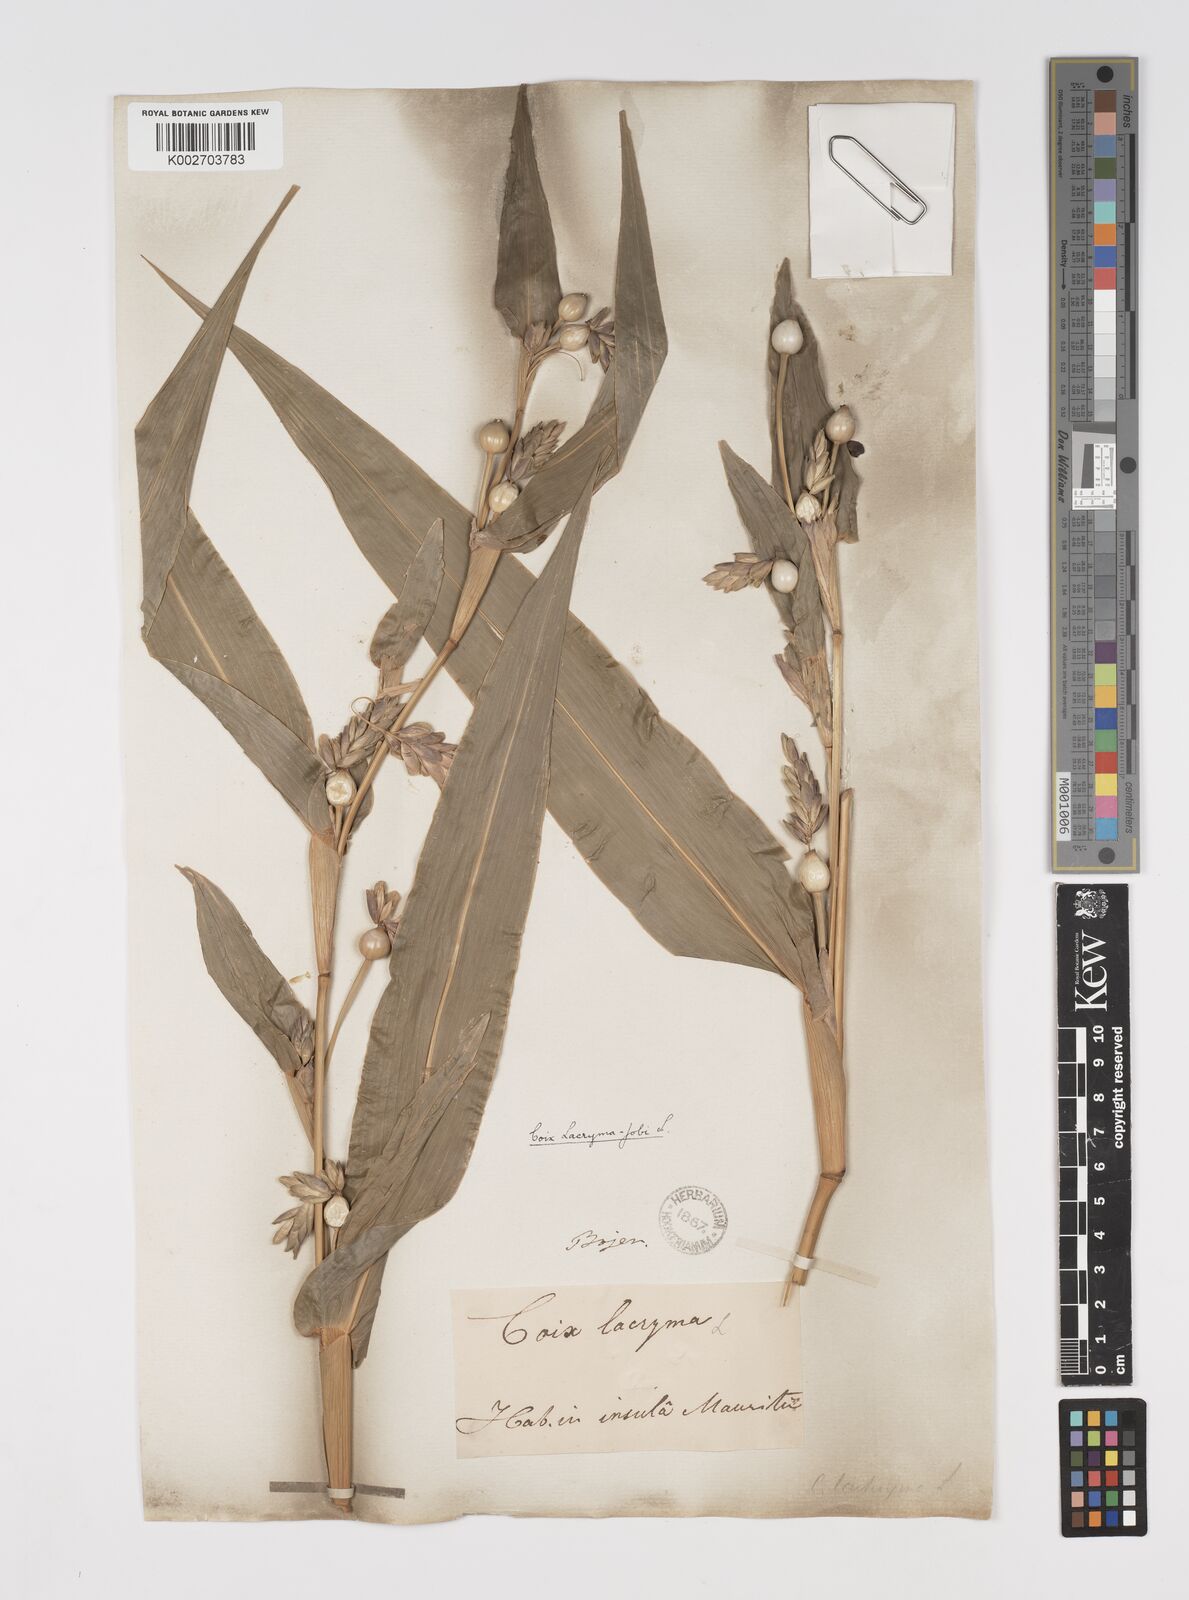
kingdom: Plantae
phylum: Tracheophyta
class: Liliopsida
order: Poales
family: Poaceae
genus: Coix
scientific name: Coix lacryma-jobi
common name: Job's tears
